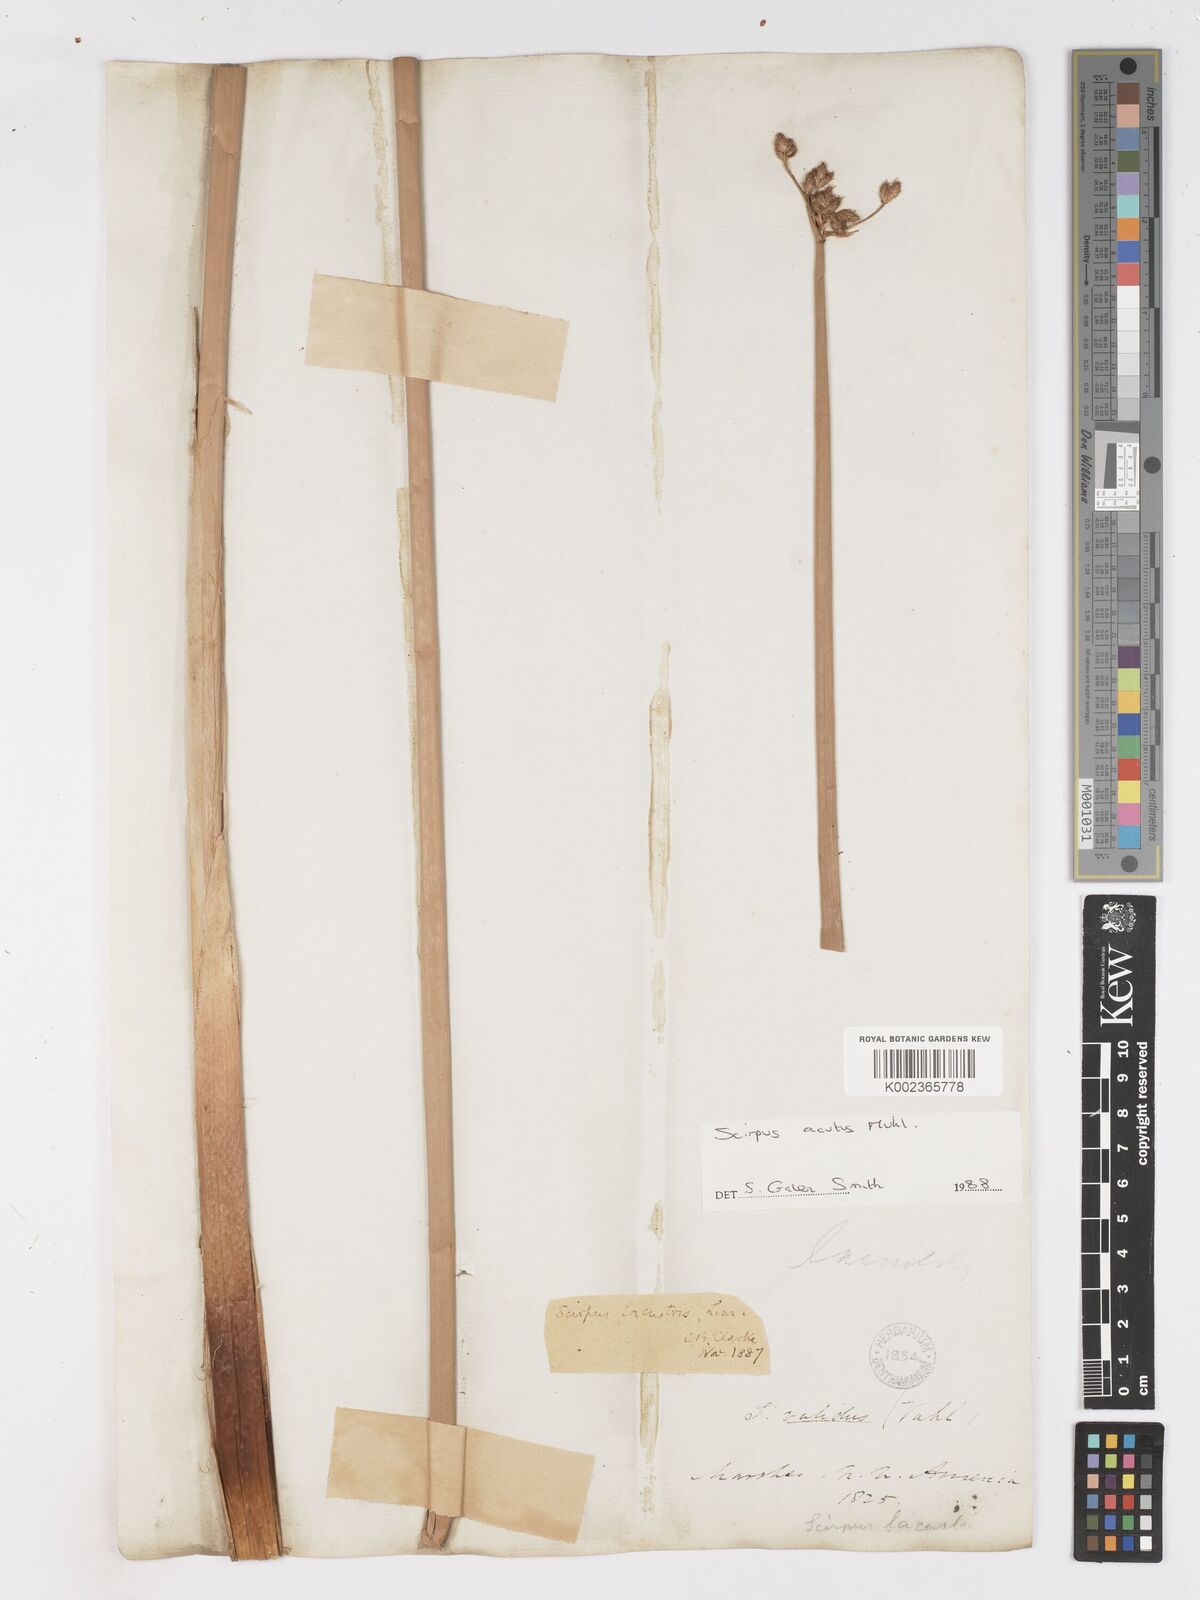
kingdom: Plantae
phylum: Tracheophyta
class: Liliopsida
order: Poales
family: Cyperaceae
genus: Schoenoplectus
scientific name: Schoenoplectus tabernaemontani
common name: Grey club-rush
